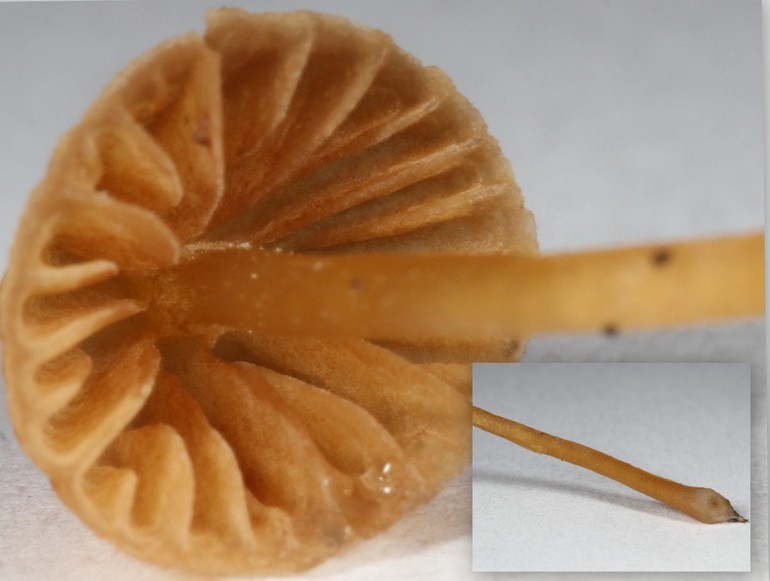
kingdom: Fungi
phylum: Basidiomycota
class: Agaricomycetes
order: Agaricales
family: Hymenogastraceae
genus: Galerina
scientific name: Galerina hypnorum
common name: mos-hjelmhat
